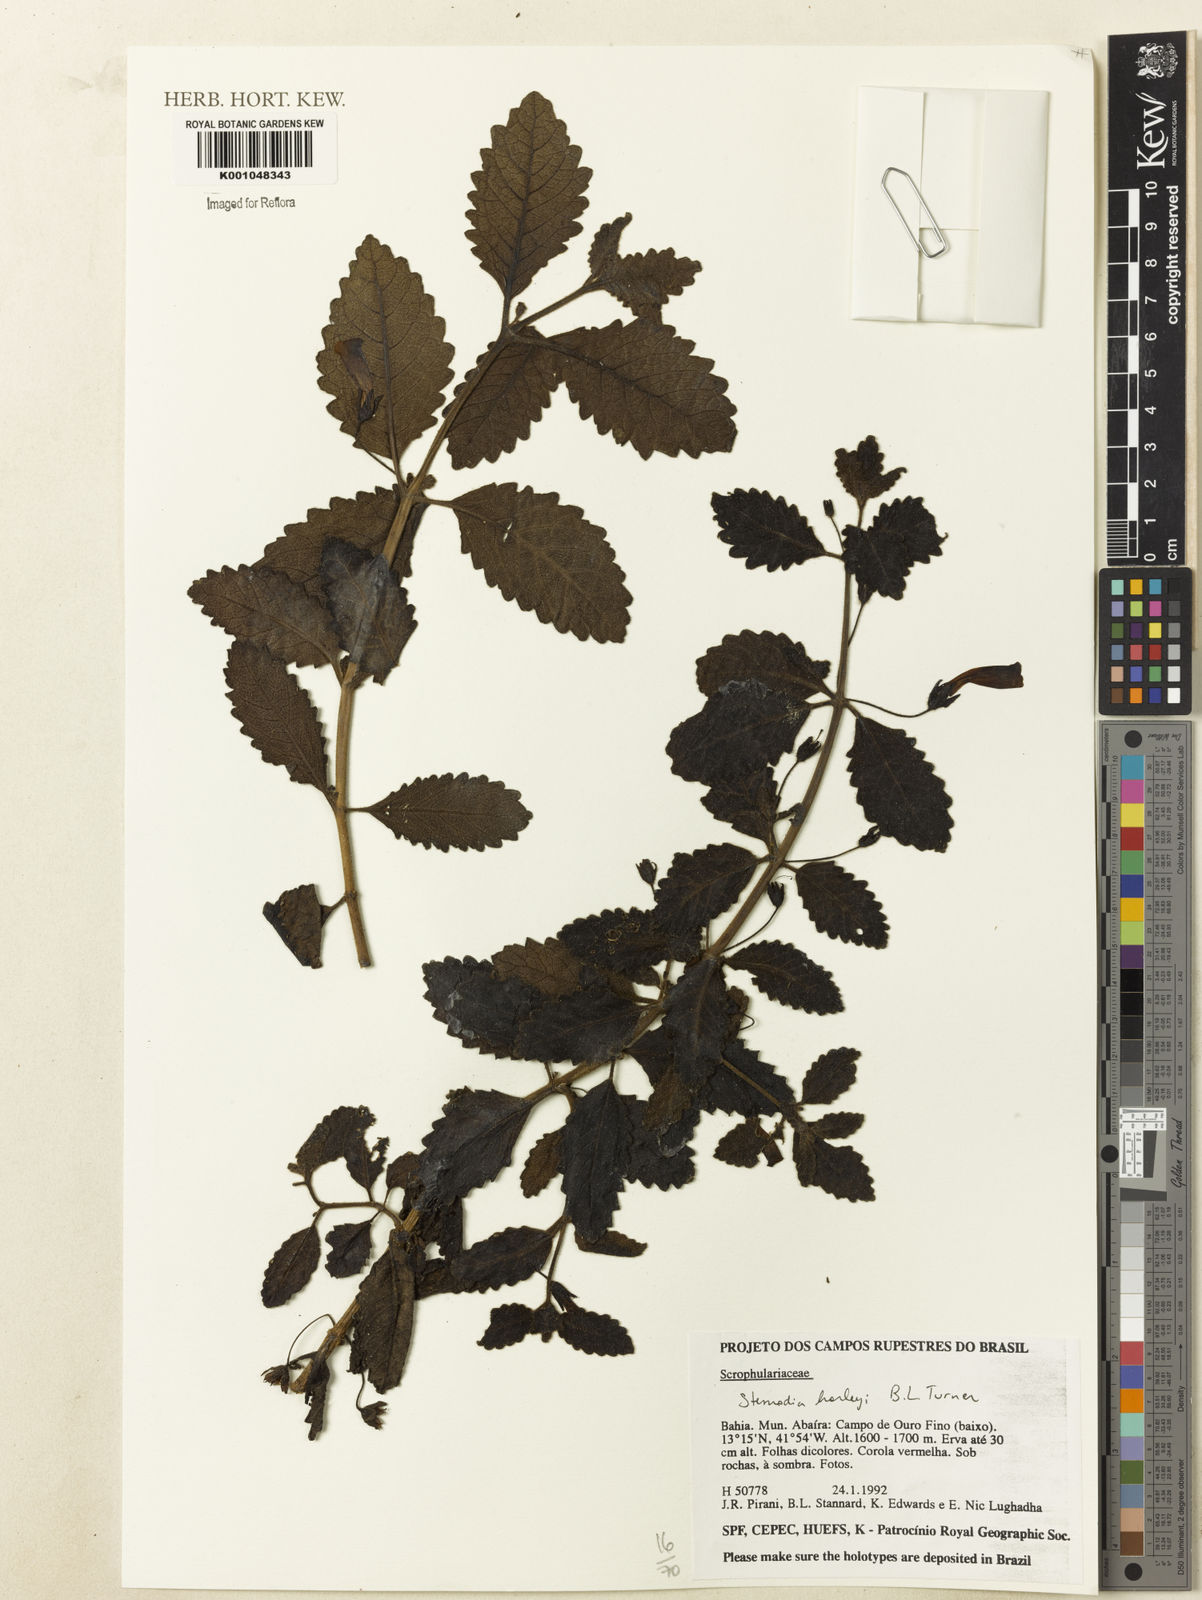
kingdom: Plantae
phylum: Tracheophyta
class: Magnoliopsida
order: Lamiales
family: Plantaginaceae
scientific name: Plantaginaceae
